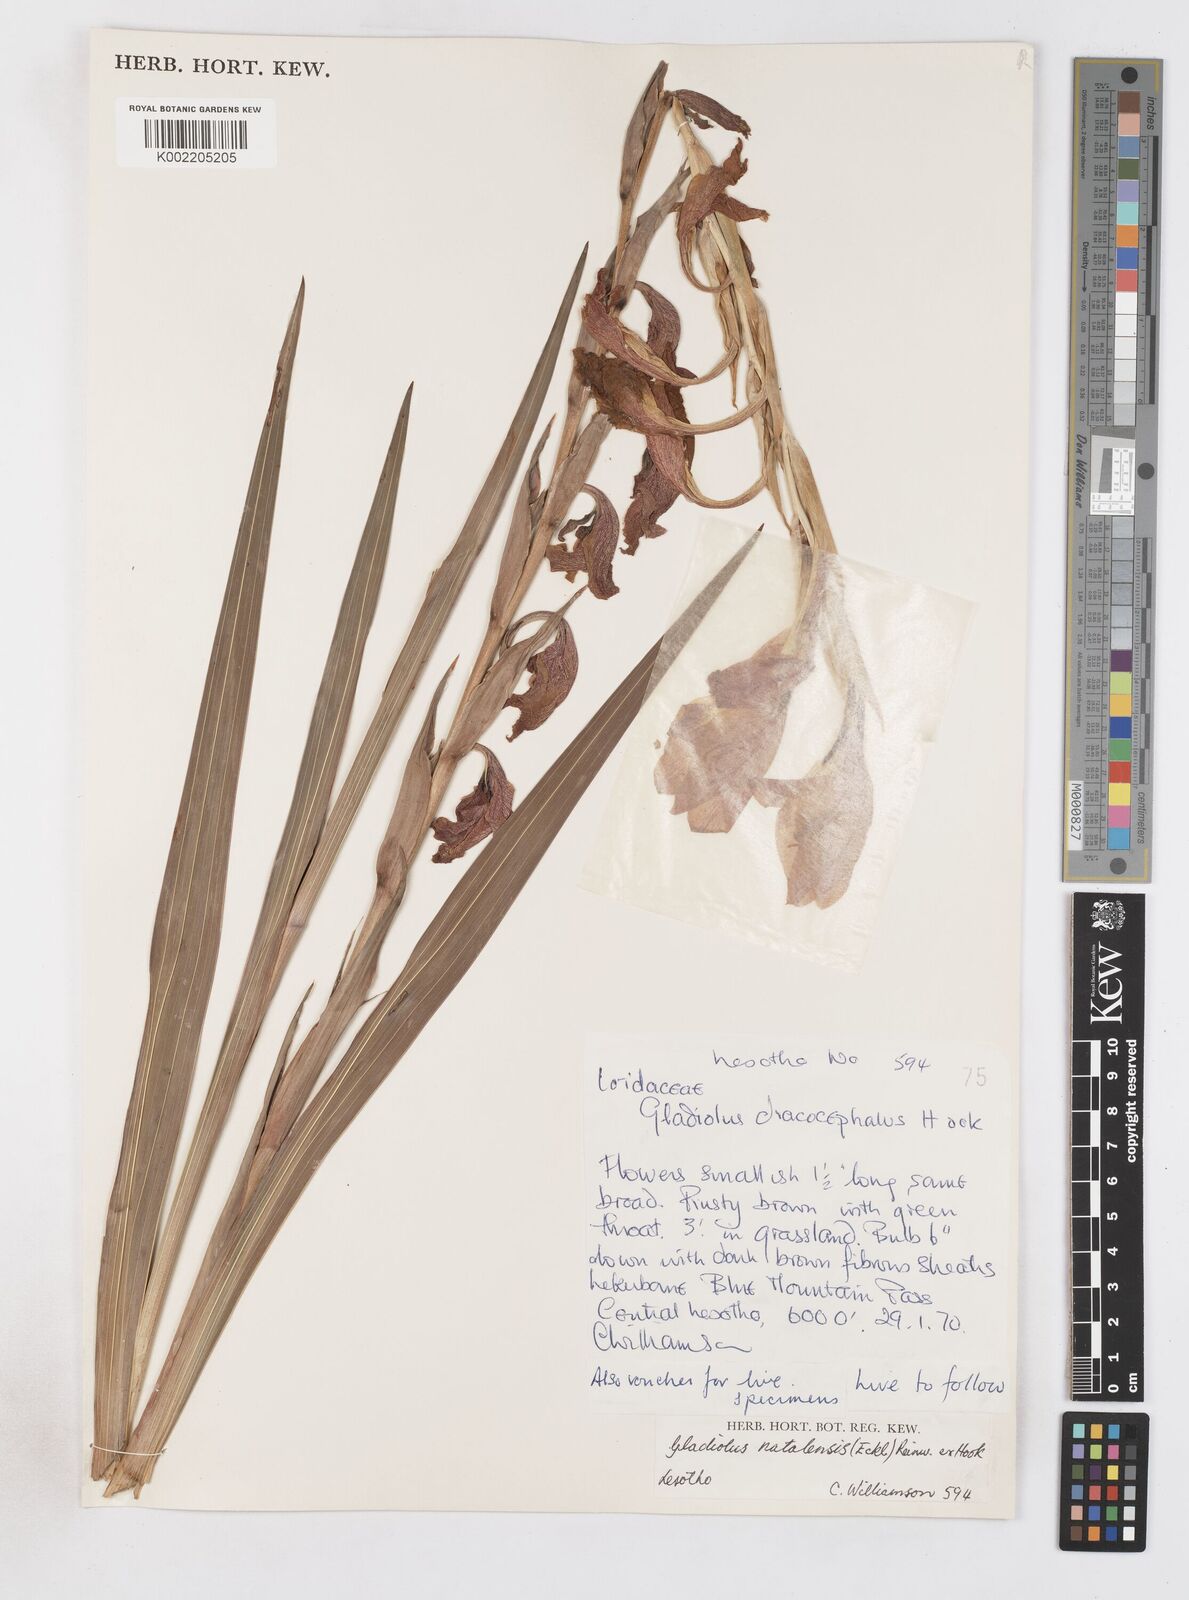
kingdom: Plantae
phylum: Tracheophyta
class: Liliopsida
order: Asparagales
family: Iridaceae
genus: Gladiolus
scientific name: Gladiolus dalenii
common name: Cornflag
